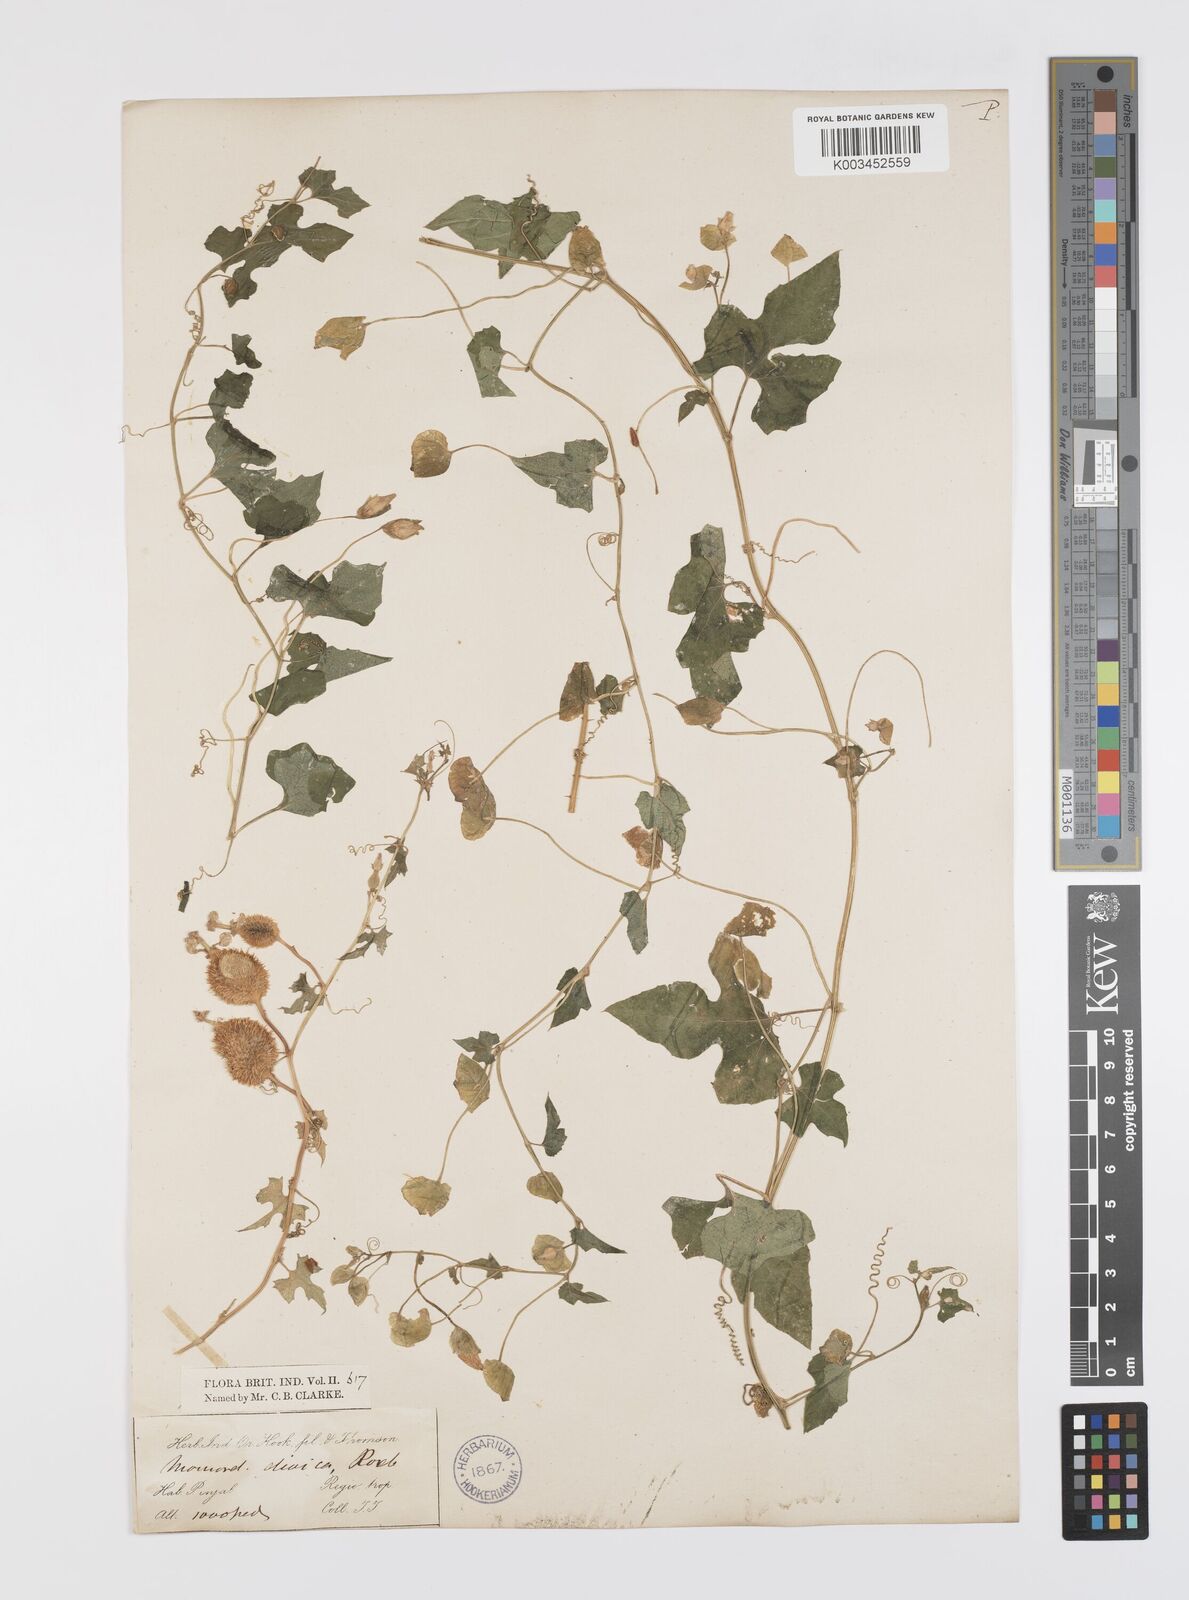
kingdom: Plantae
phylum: Tracheophyta
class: Magnoliopsida
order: Cucurbitales
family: Cucurbitaceae
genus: Momordica
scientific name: Momordica dioica
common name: Spine gourd
